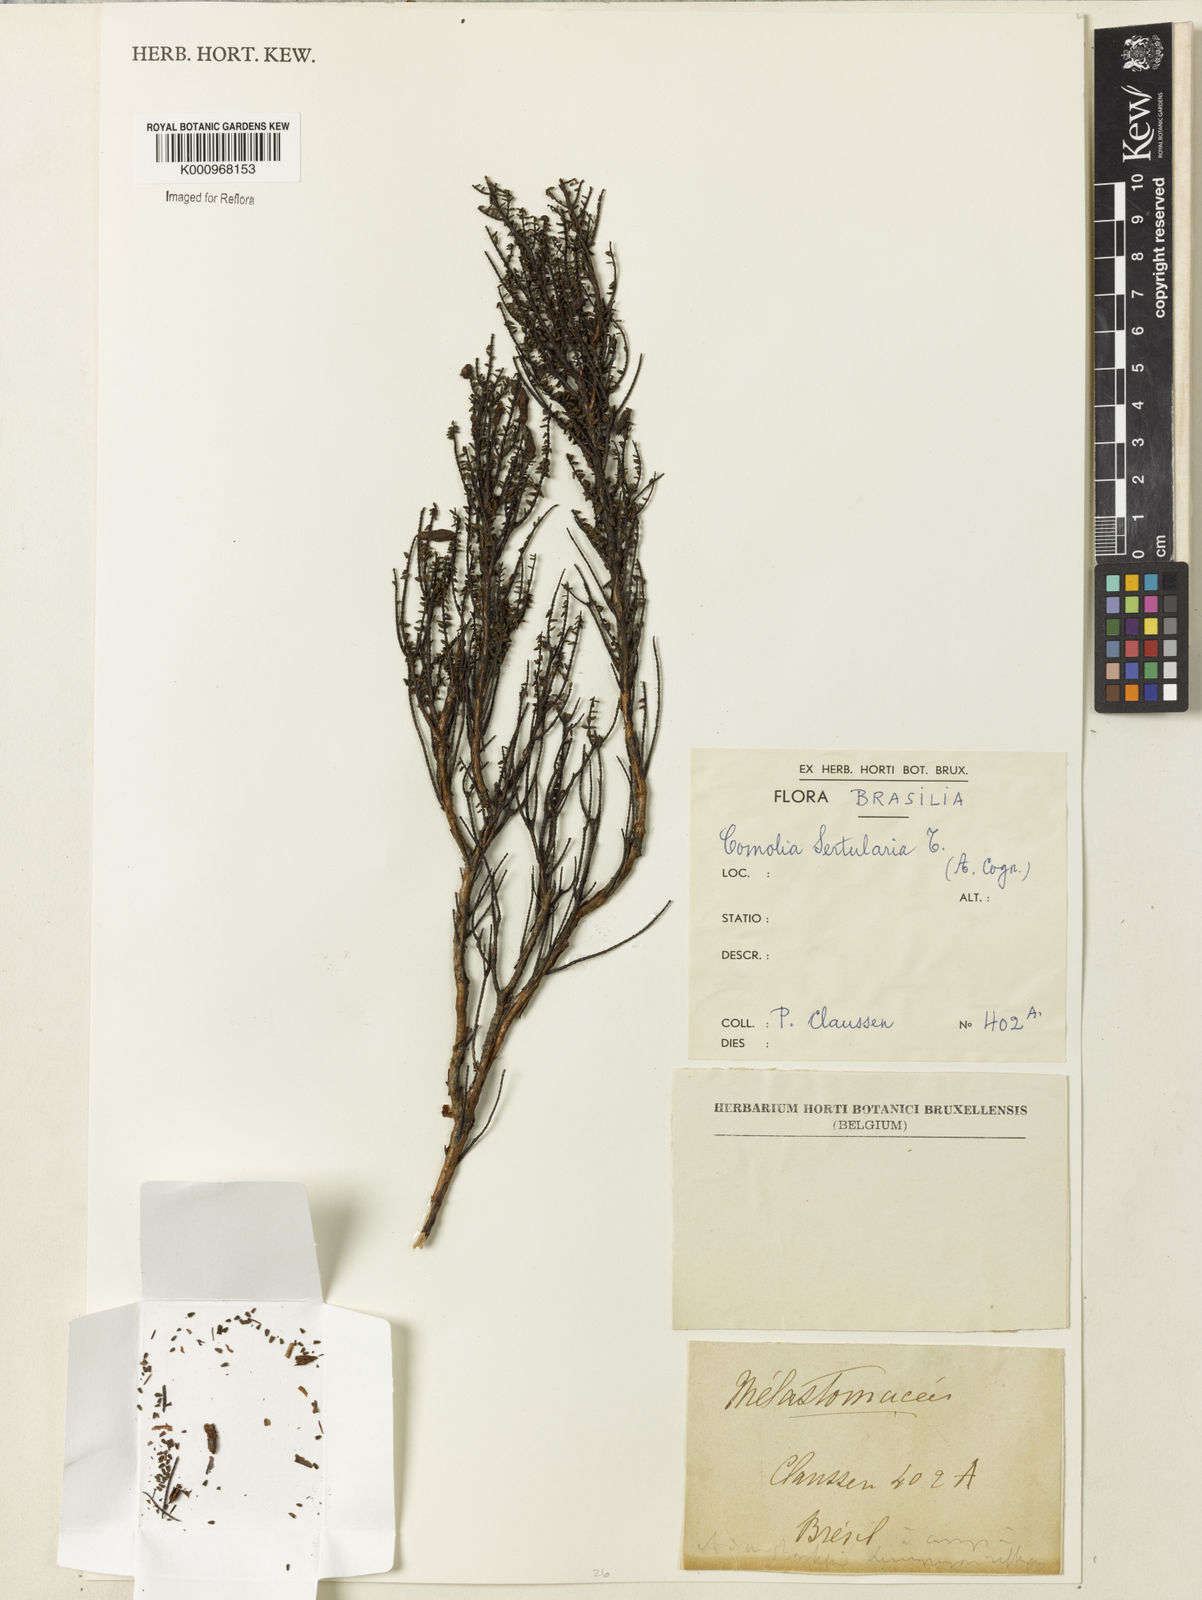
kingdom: Plantae
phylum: Tracheophyta
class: Magnoliopsida
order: Myrtales
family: Melastomataceae
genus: Fritzschia
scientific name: Fritzschia sertularia
